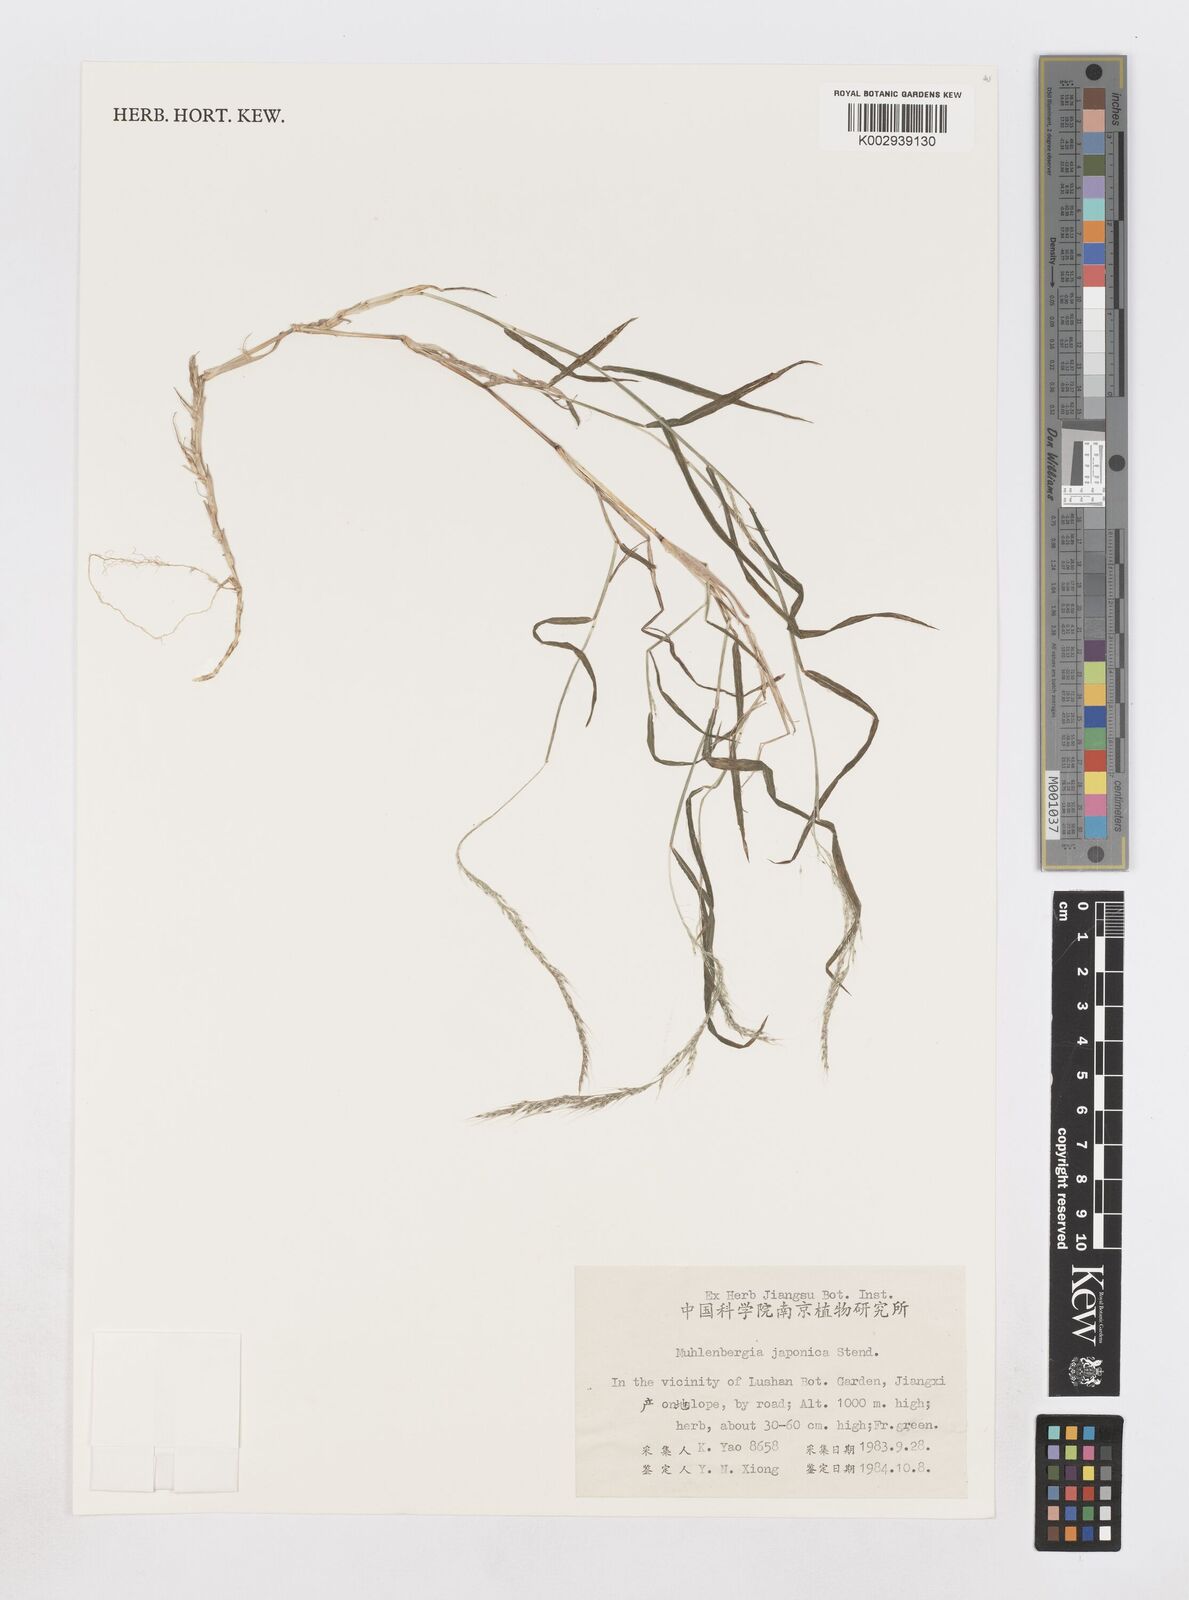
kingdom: Plantae
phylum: Tracheophyta
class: Liliopsida
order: Poales
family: Poaceae
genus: Muhlenbergia
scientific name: Muhlenbergia japonica
